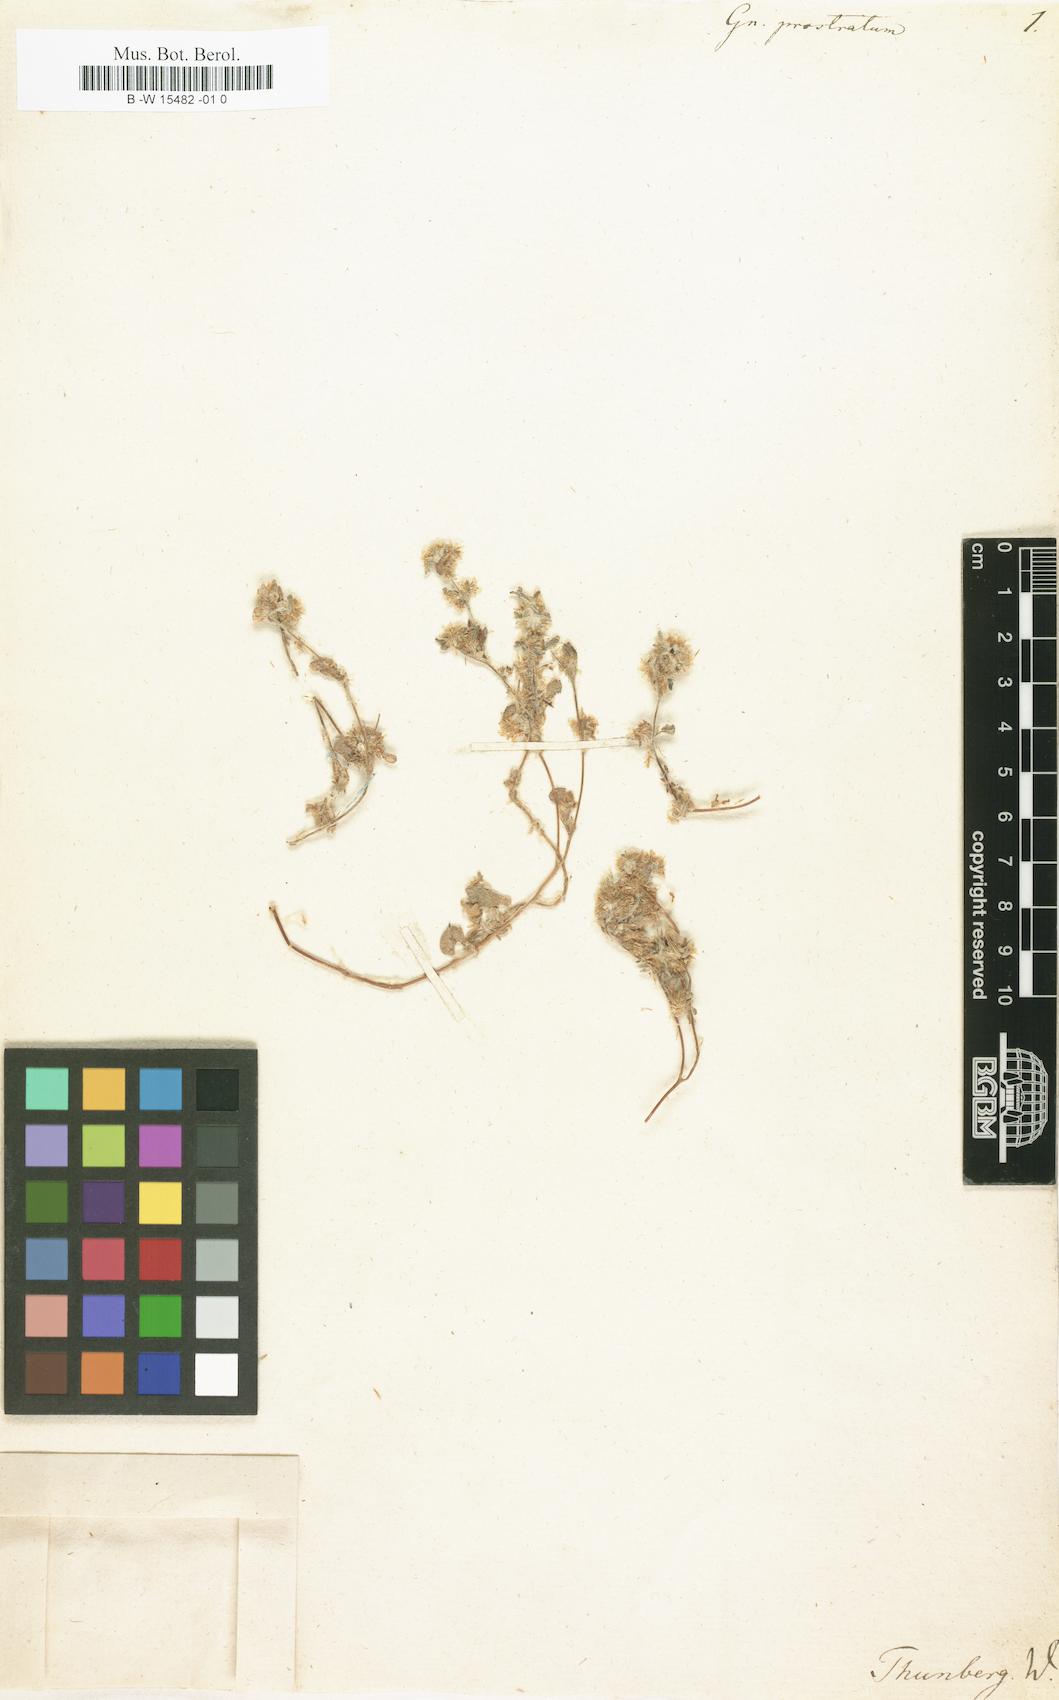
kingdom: Plantae
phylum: Tracheophyta
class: Magnoliopsida
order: Asterales
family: Asteraceae
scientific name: Asteraceae
